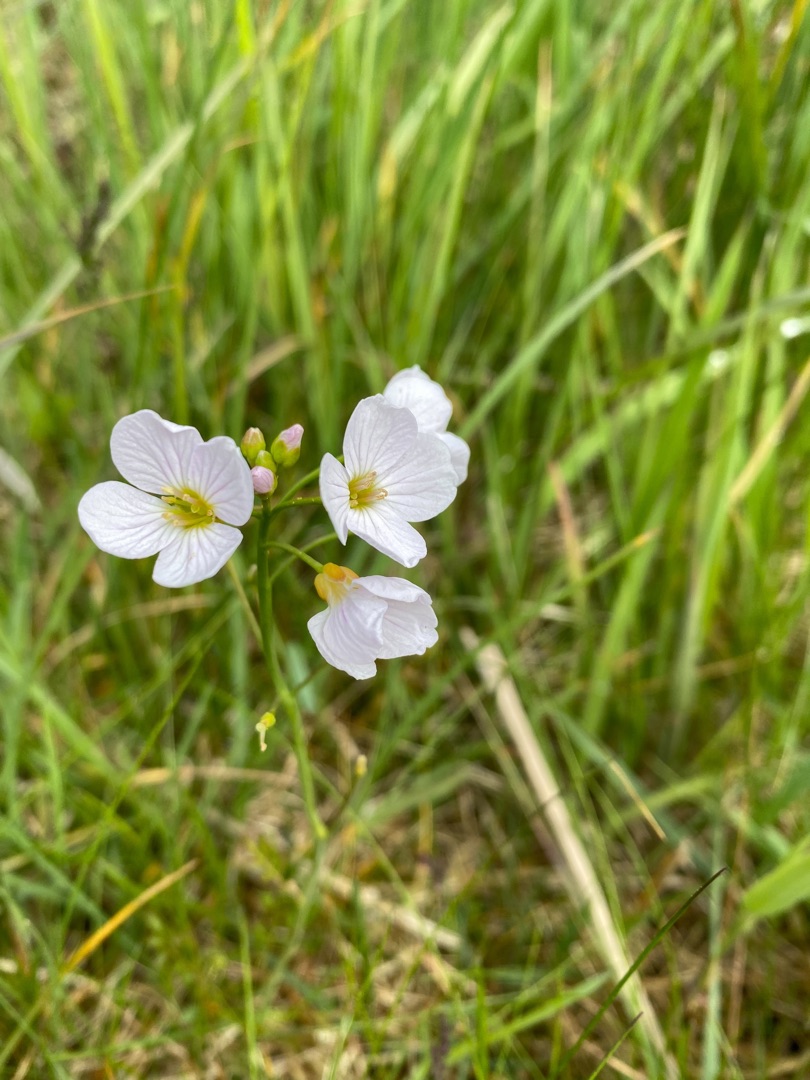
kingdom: Plantae
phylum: Tracheophyta
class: Magnoliopsida
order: Brassicales
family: Brassicaceae
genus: Cardamine
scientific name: Cardamine pratensis
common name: Engkarse
